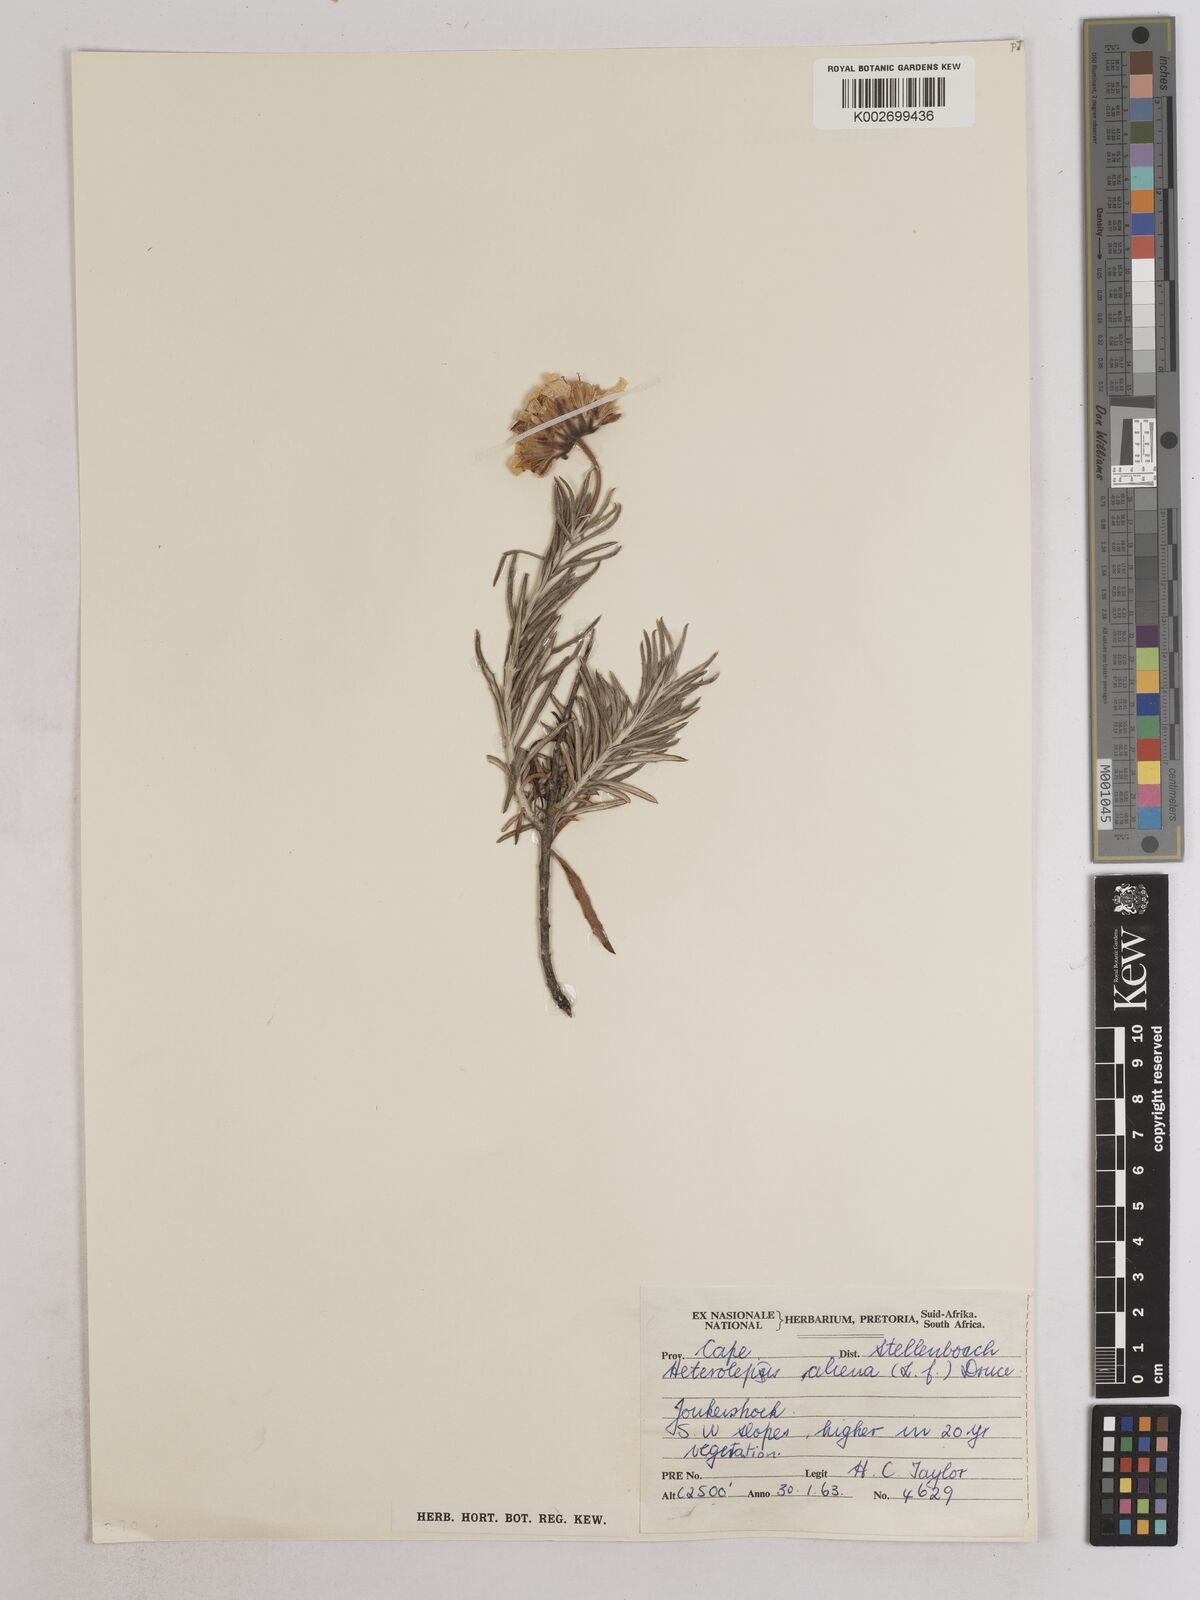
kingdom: Plantae
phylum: Tracheophyta
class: Magnoliopsida
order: Asterales
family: Asteraceae
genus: Heterolepis
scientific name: Heterolepis aliena
